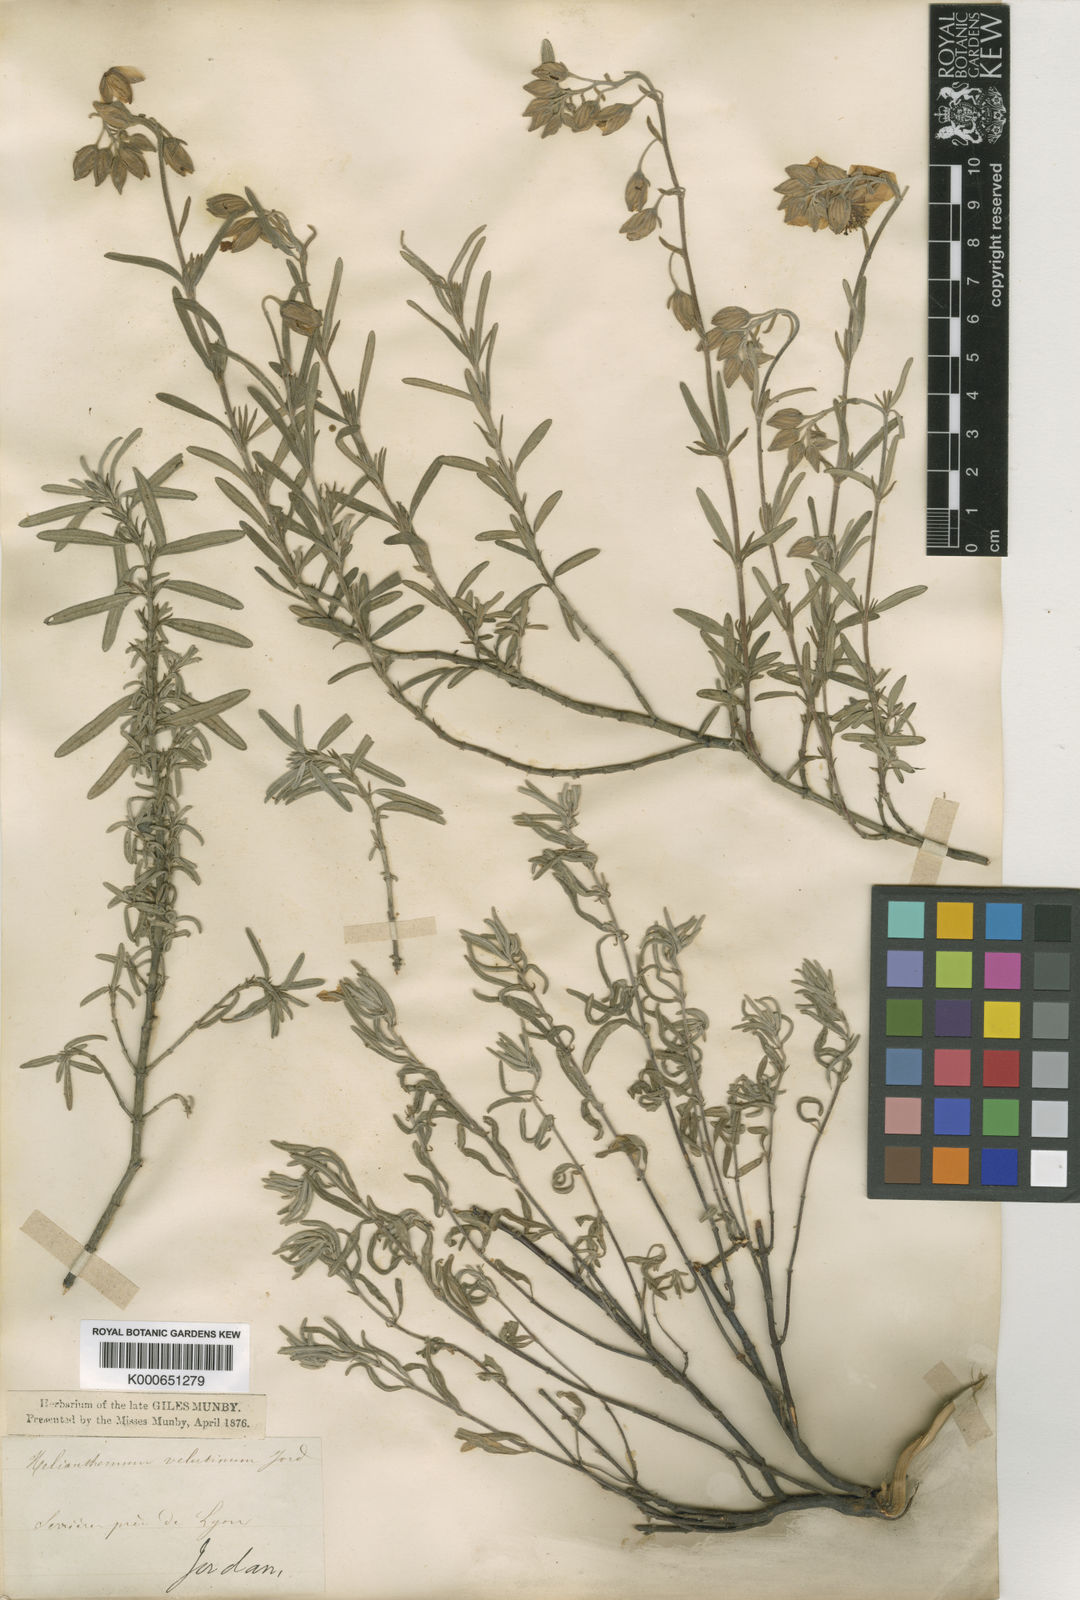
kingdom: Plantae
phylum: Tracheophyta
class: Magnoliopsida
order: Malvales
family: Cistaceae
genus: Helianthemum
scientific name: Helianthemum apenninum
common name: White rock-rose
